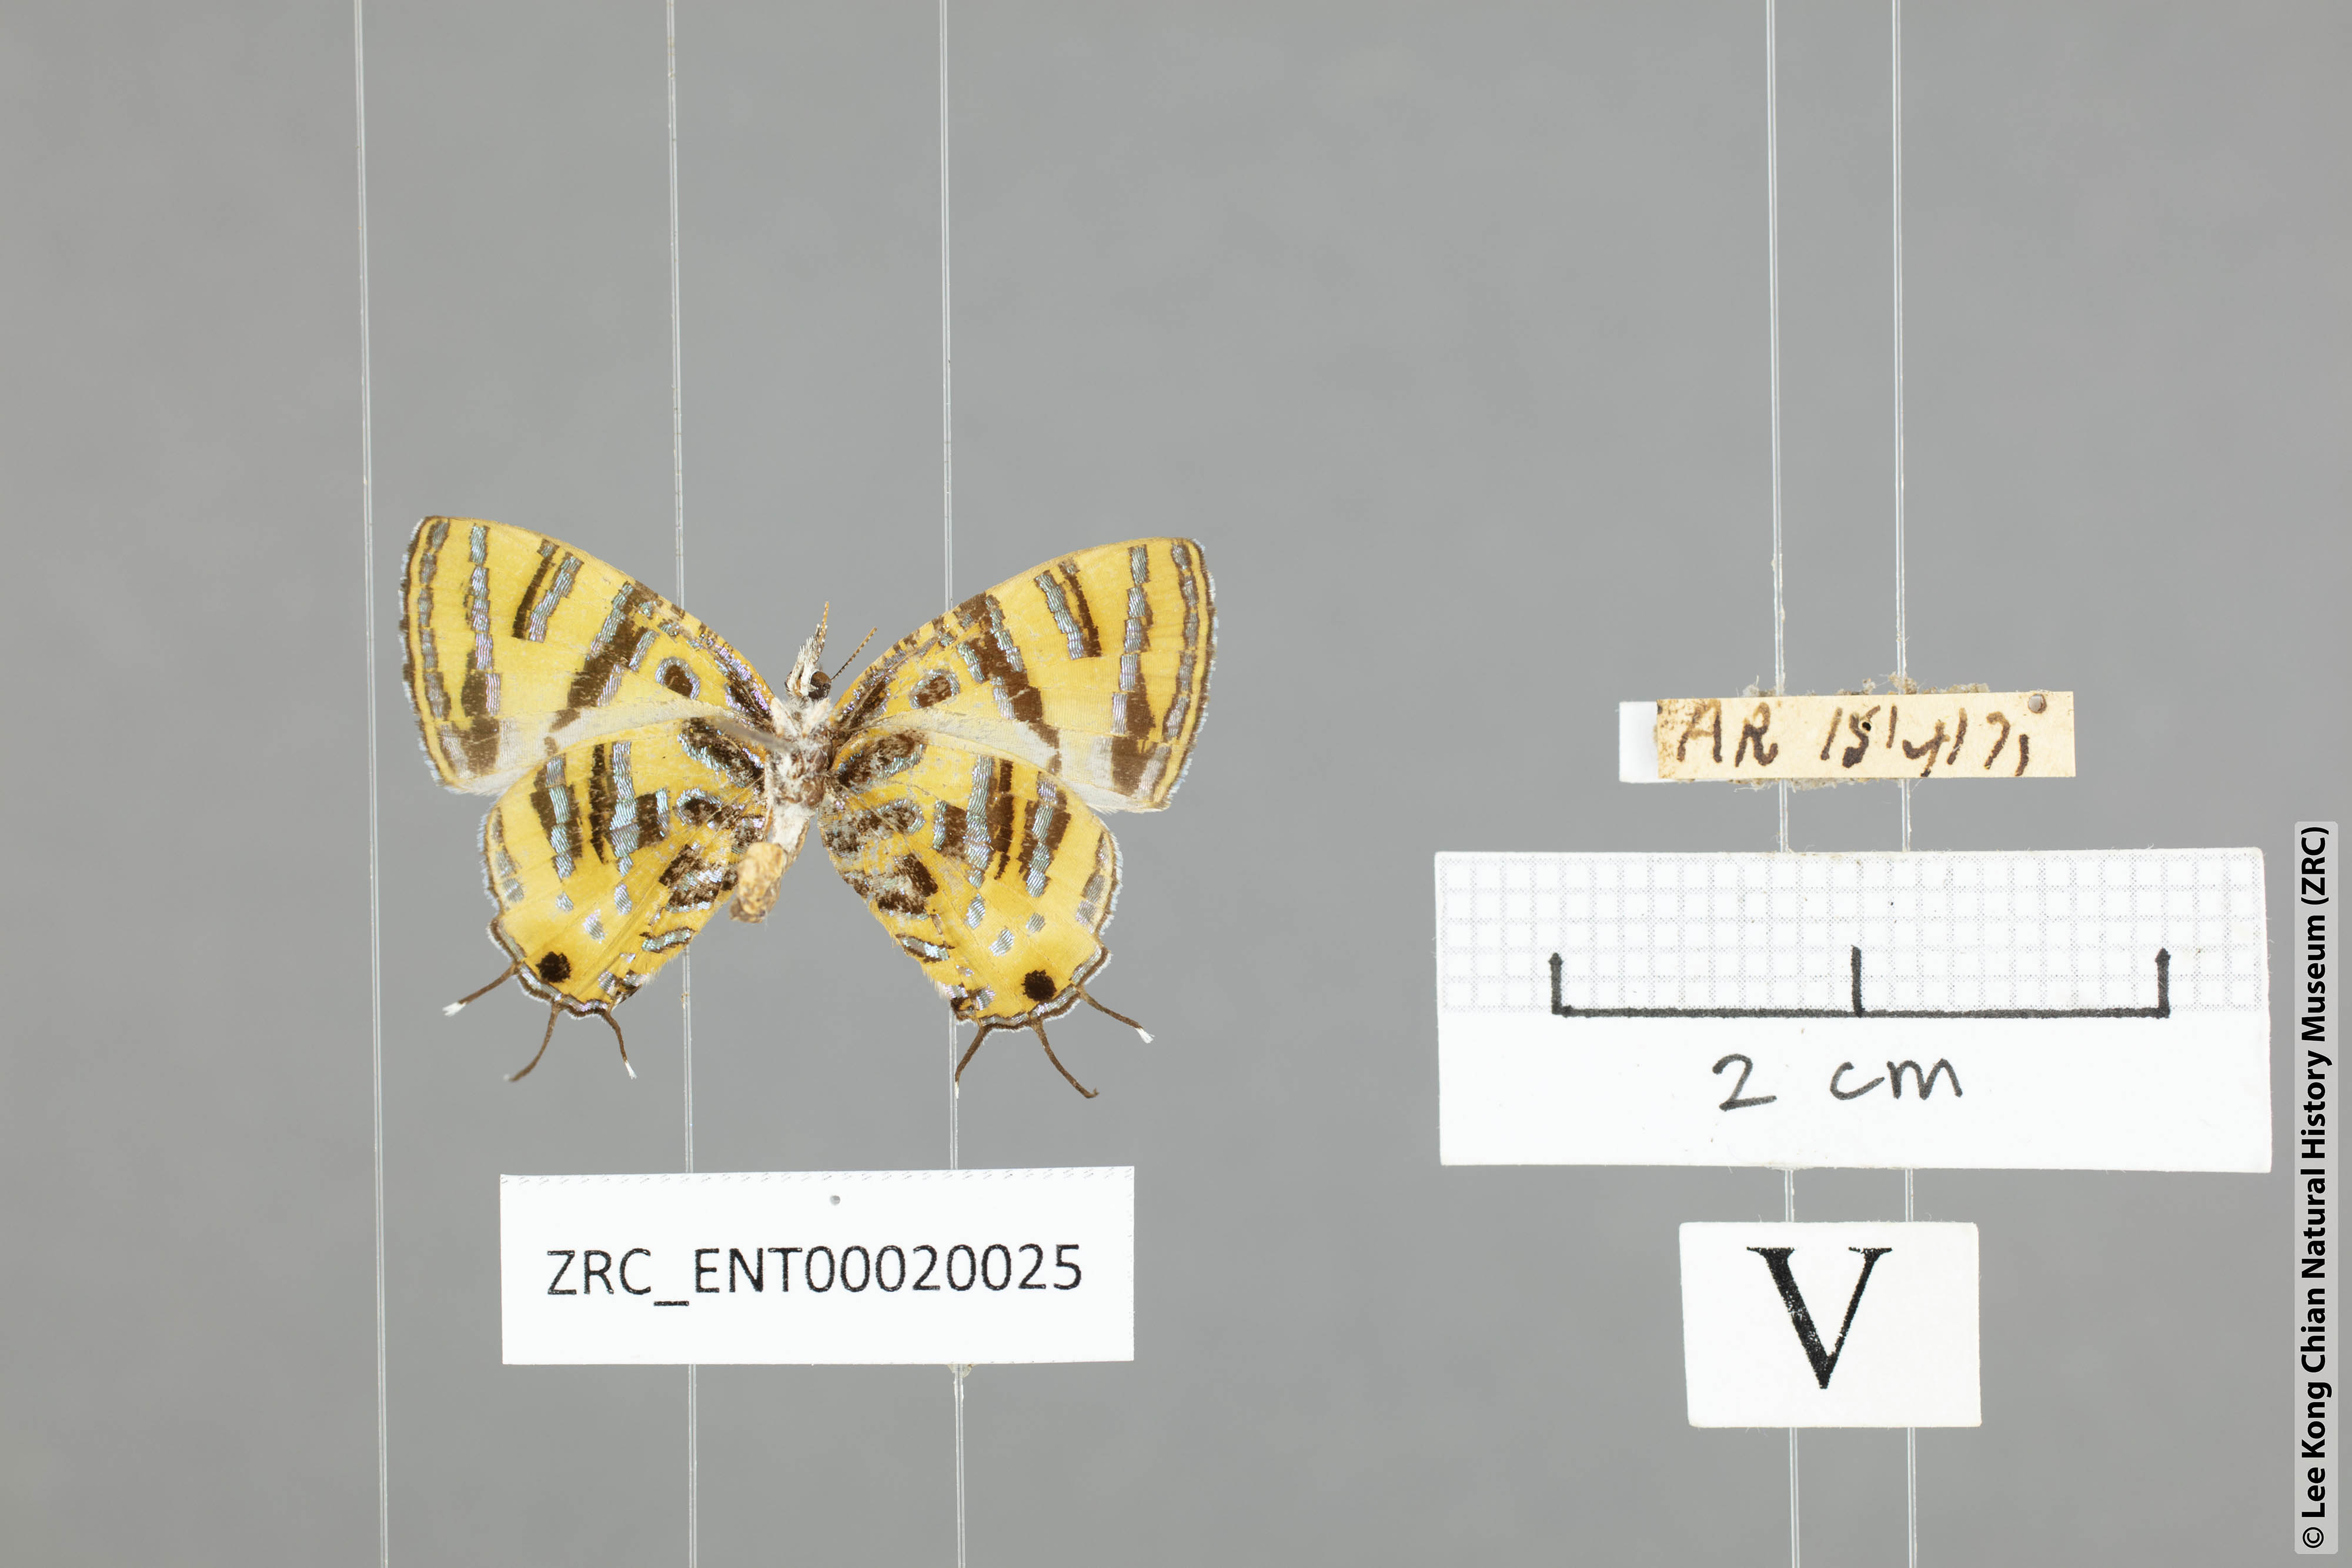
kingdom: Animalia
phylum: Arthropoda
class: Insecta
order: Lepidoptera
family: Lycaenidae
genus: Catapaecilma
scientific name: Catapaecilma subochrea
